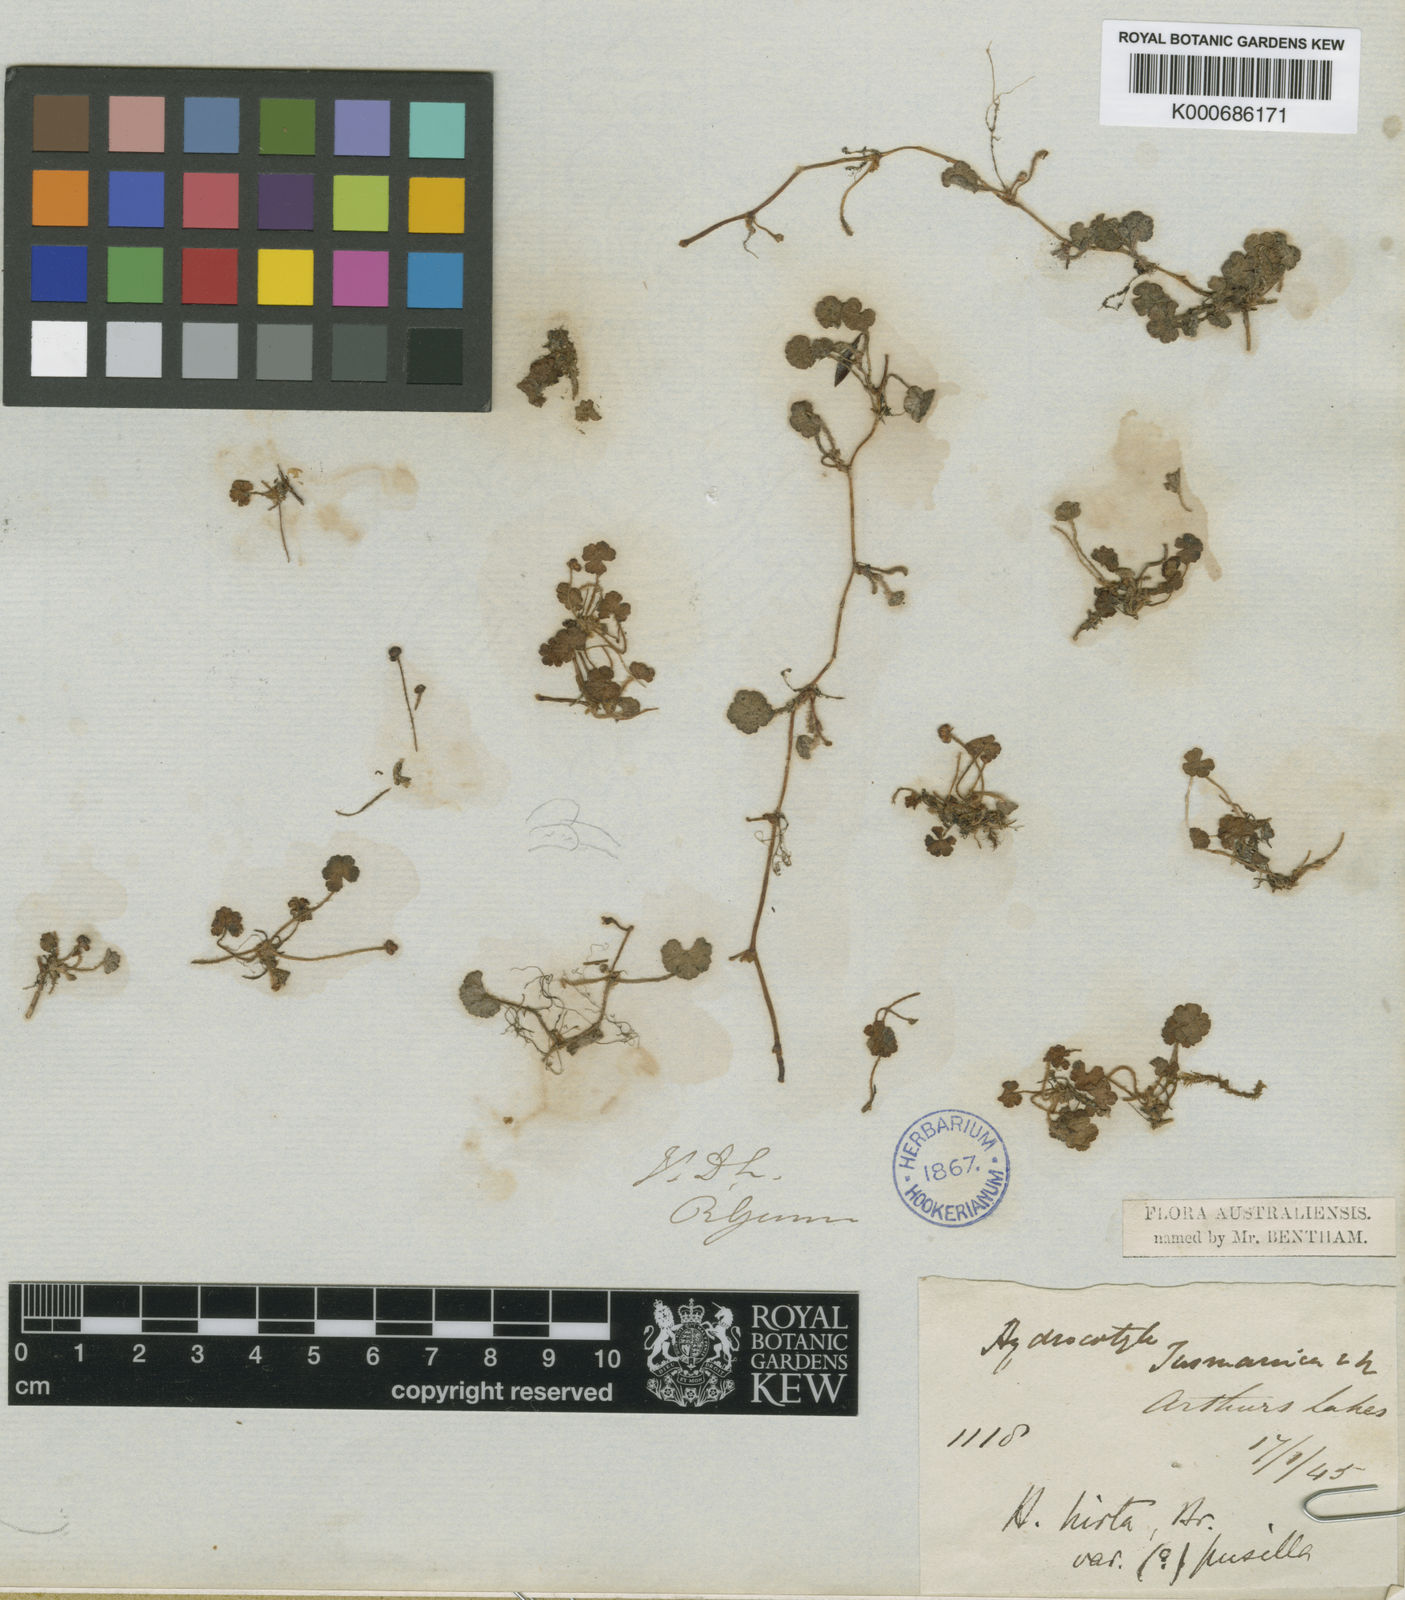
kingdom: Plantae
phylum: Tracheophyta
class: Magnoliopsida
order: Apiales
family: Araliaceae
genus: Hydrocotyle
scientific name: Hydrocotyle hirta
